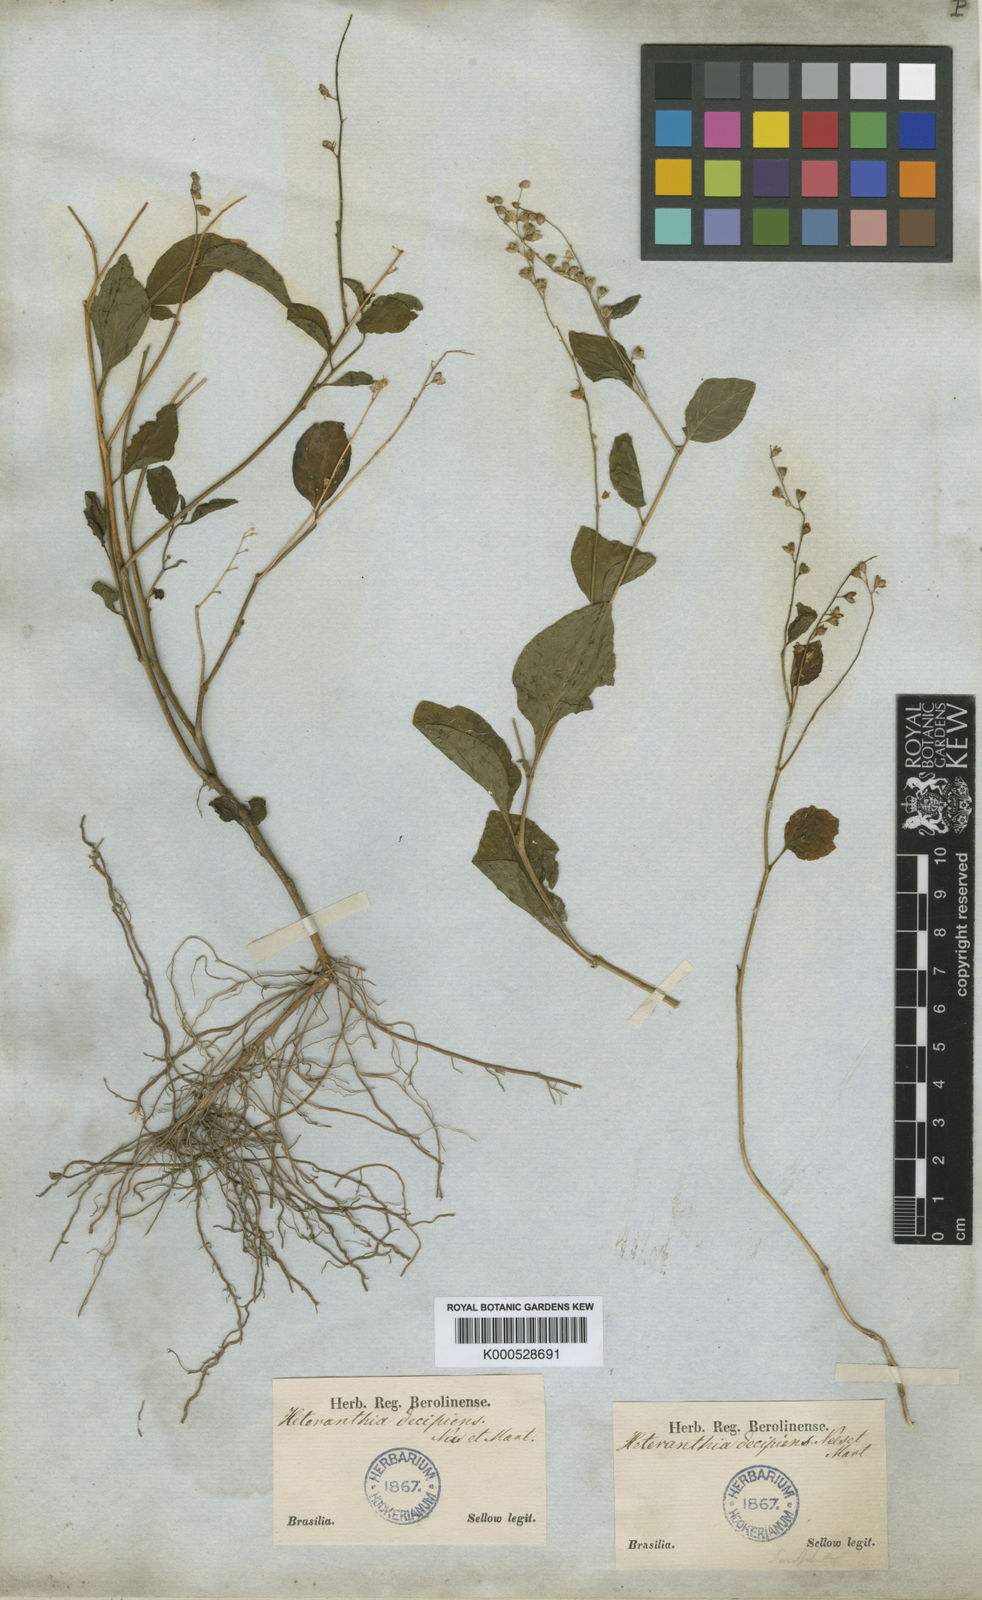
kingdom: Plantae
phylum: Tracheophyta
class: Magnoliopsida
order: Solanales
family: Solanaceae
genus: Heteranthia
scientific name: Heteranthia decipiens
